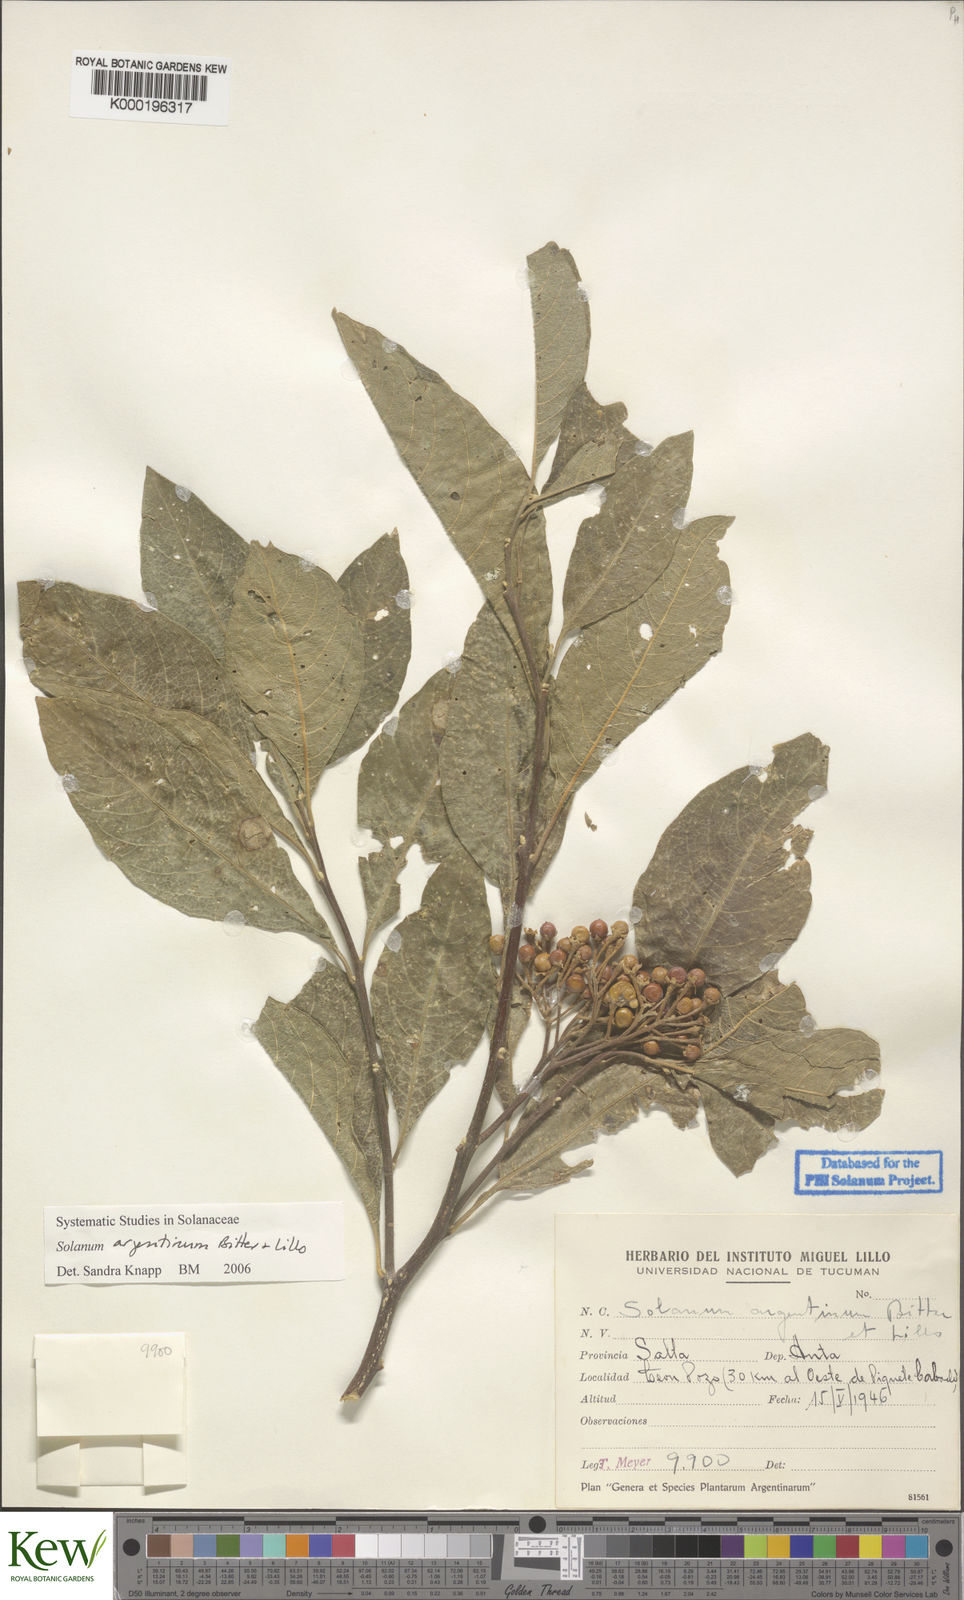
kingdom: Plantae
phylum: Tracheophyta
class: Magnoliopsida
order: Solanales
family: Solanaceae
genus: Solanum
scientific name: Solanum argentinum
